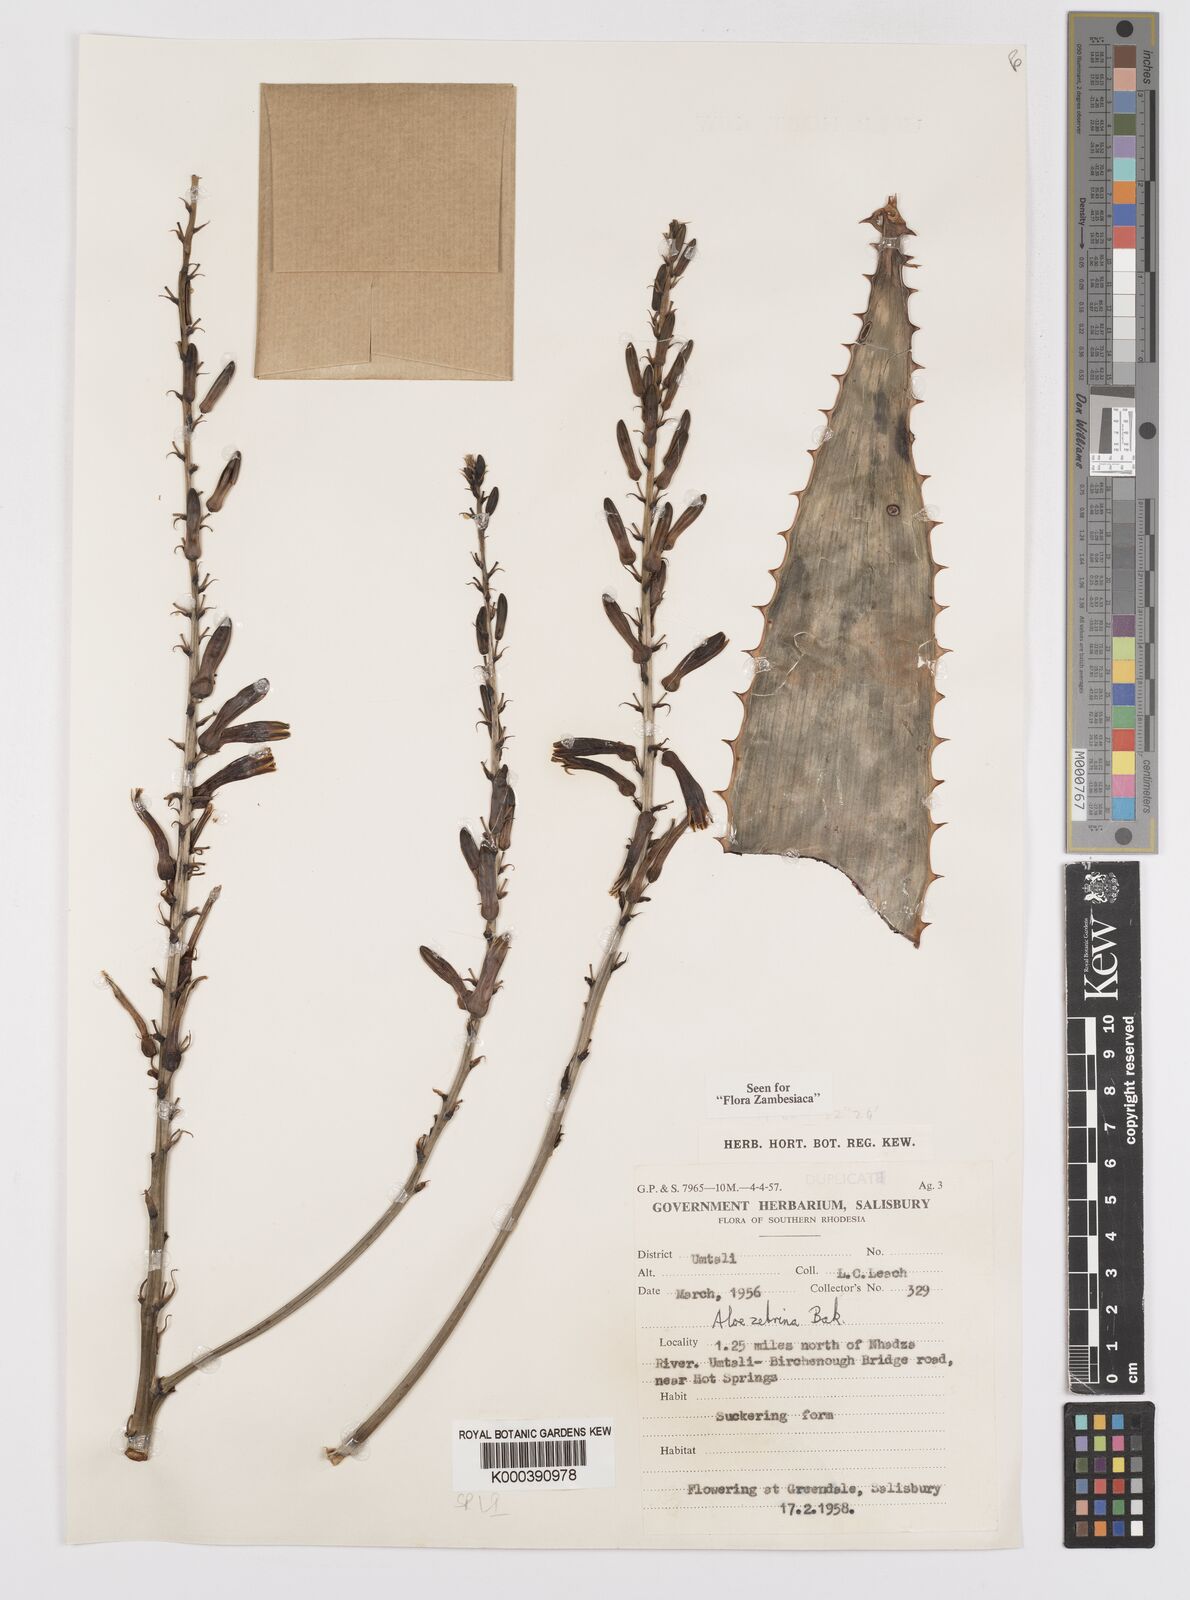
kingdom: Plantae
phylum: Tracheophyta
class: Liliopsida
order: Asparagales
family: Asphodelaceae
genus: Aloe
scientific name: Aloe zebrina
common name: Zebra-leaf aloe
